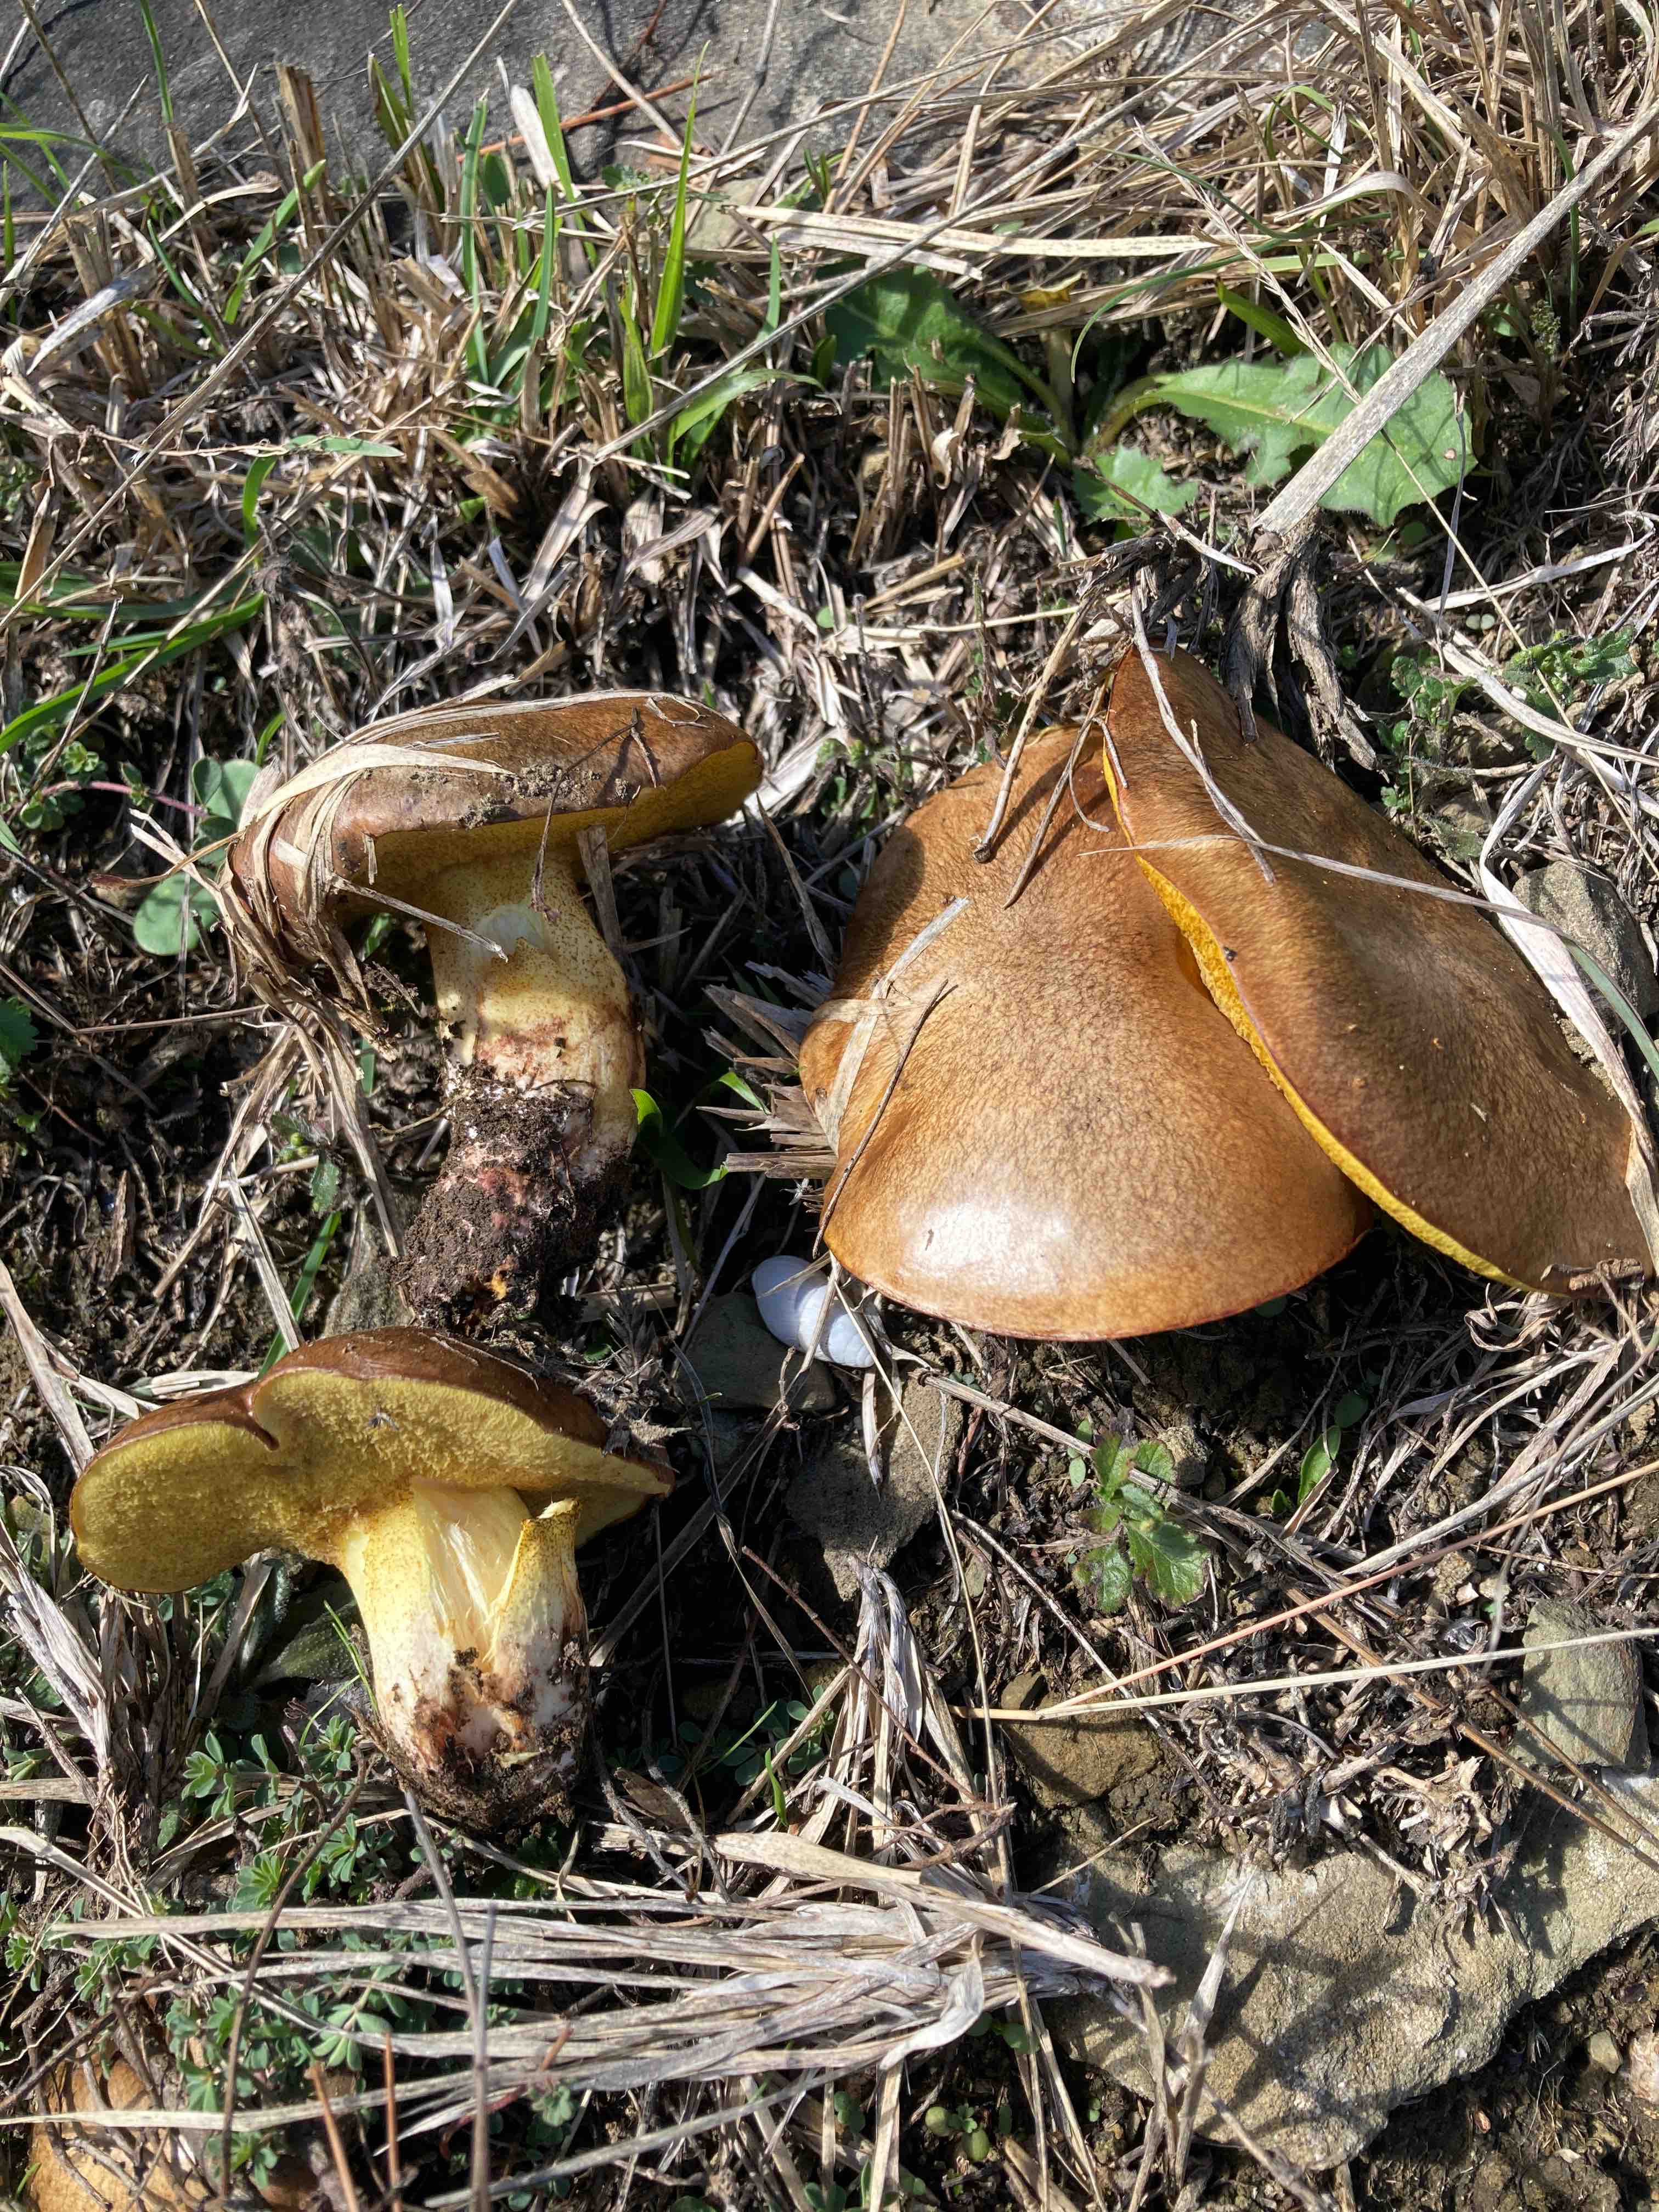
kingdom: Fungi
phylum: Basidiomycota
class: Agaricomycetes
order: Boletales
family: Suillaceae
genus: Suillus
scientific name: Suillus collinitus
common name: rosafodet slimrørhat
